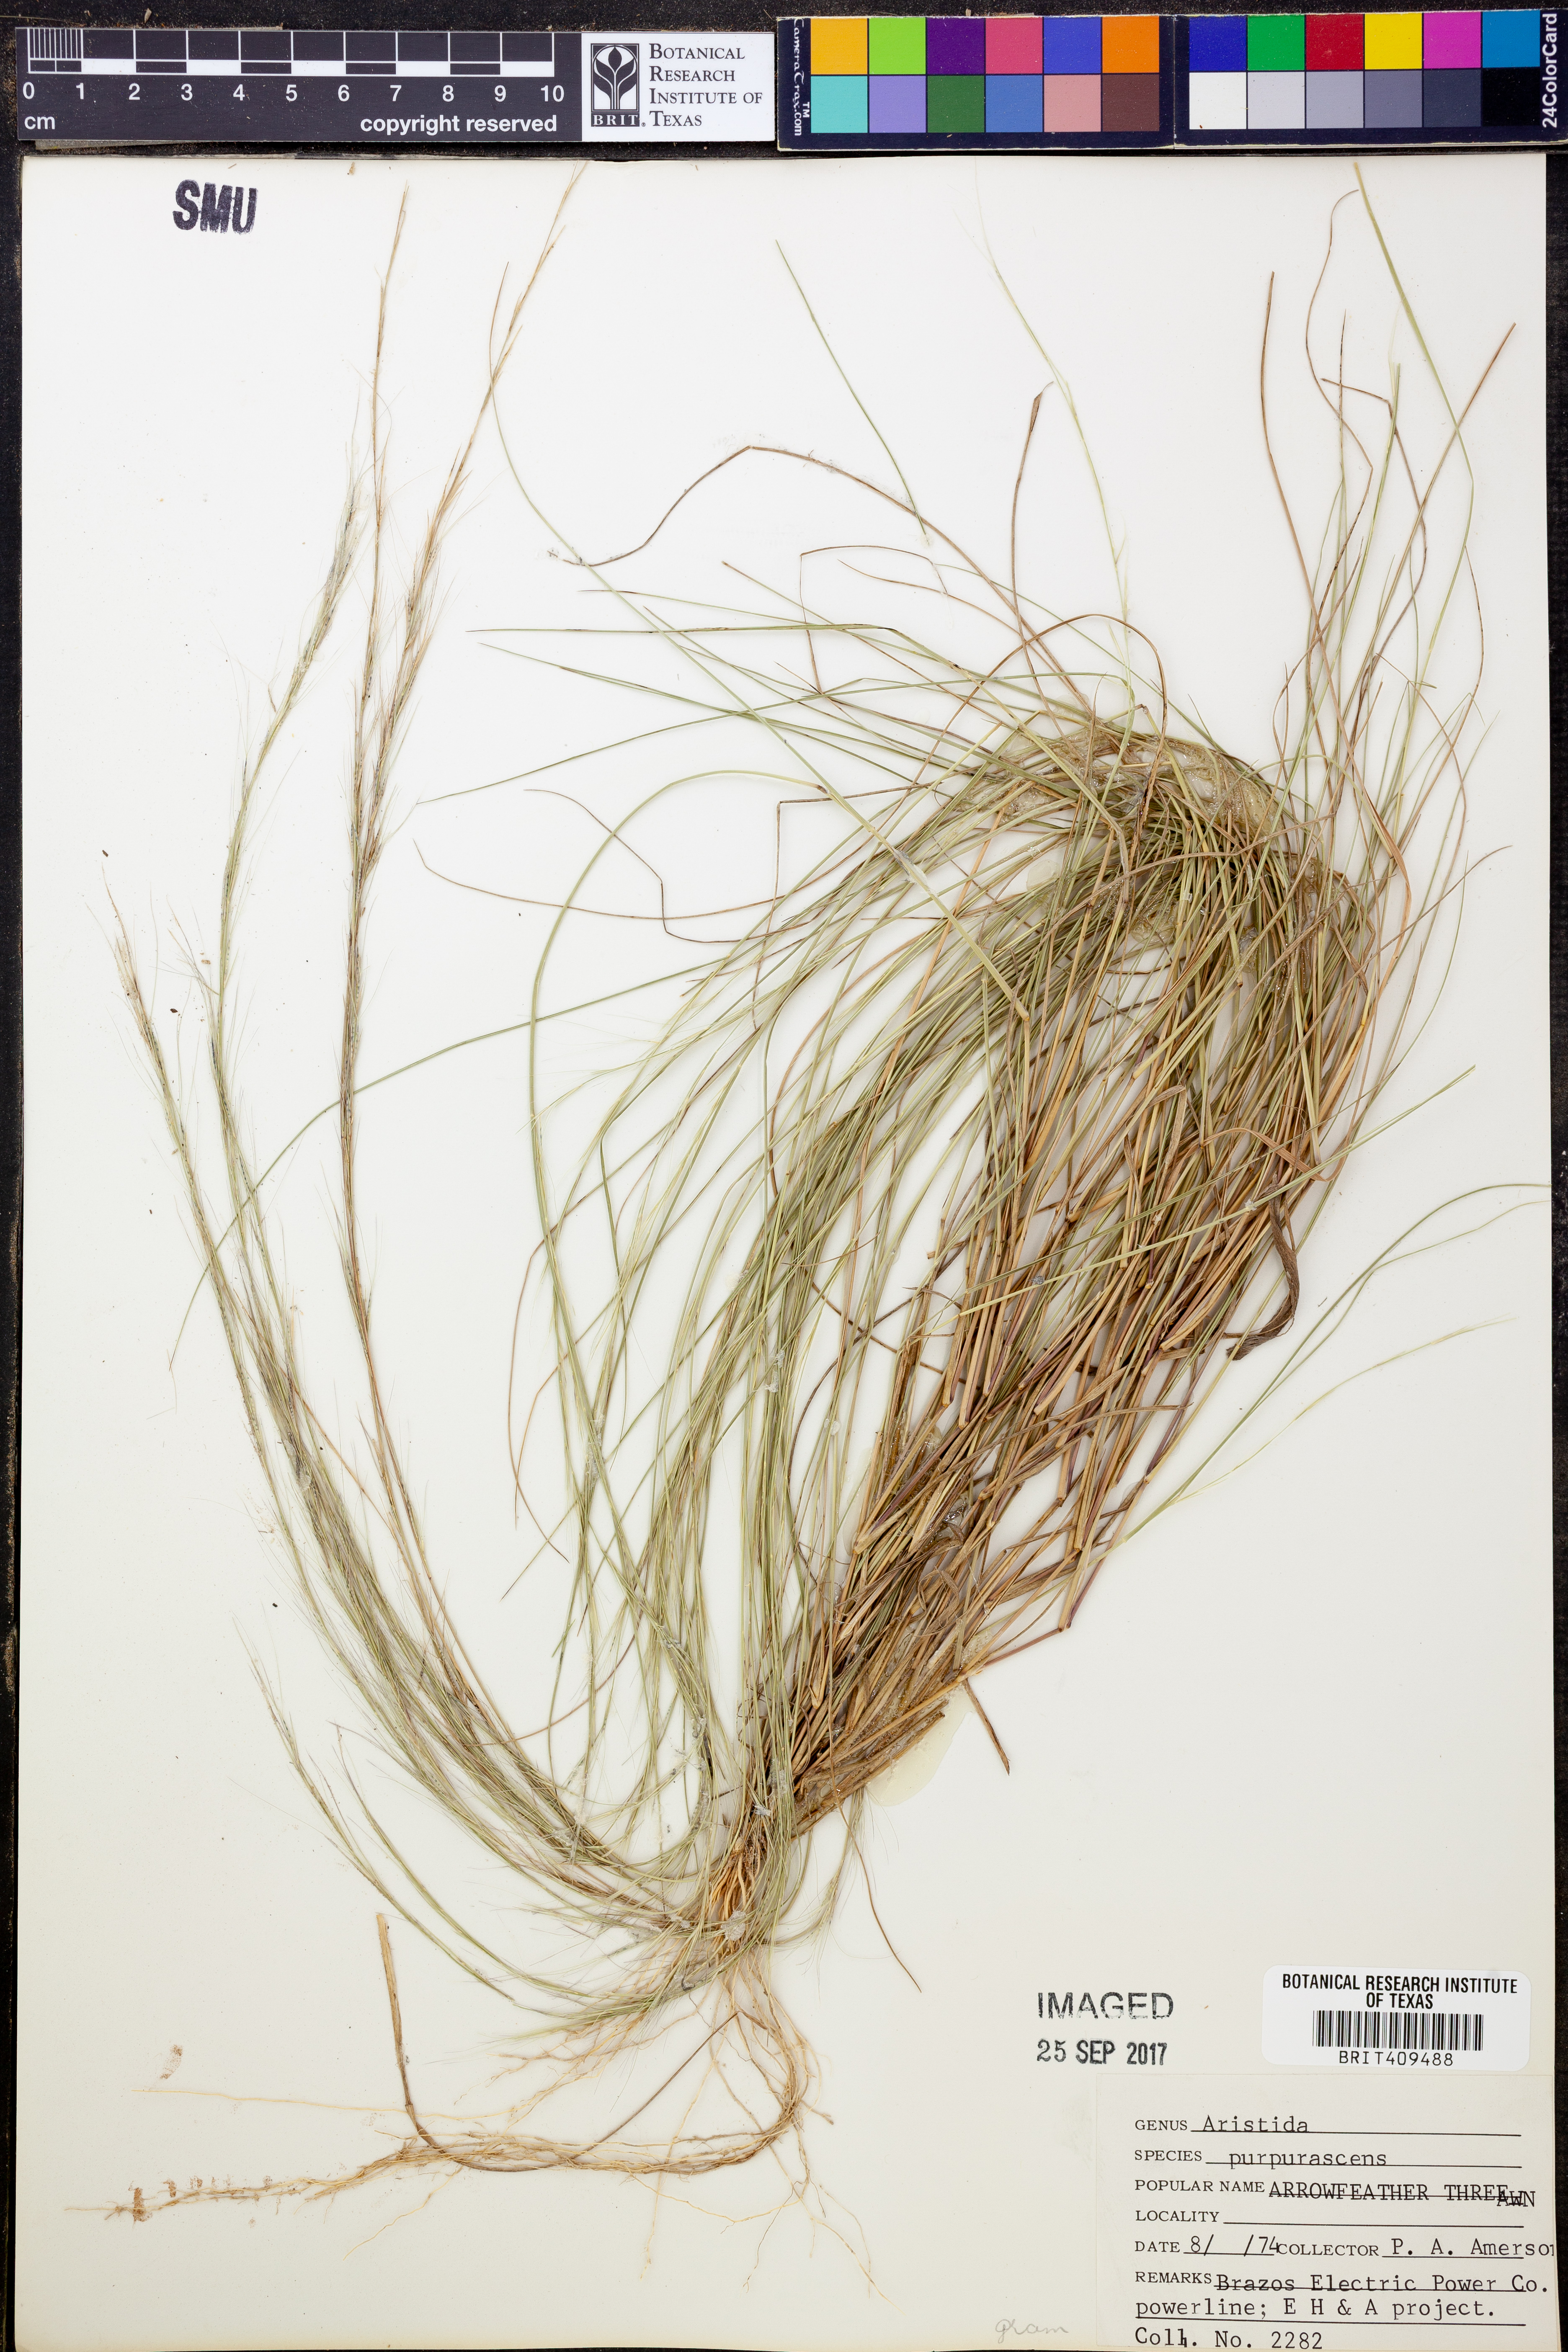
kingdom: Plantae
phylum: Tracheophyta
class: Liliopsida
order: Poales
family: Poaceae
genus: Aristida
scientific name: Aristida purpurascens
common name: Arrow-feather
